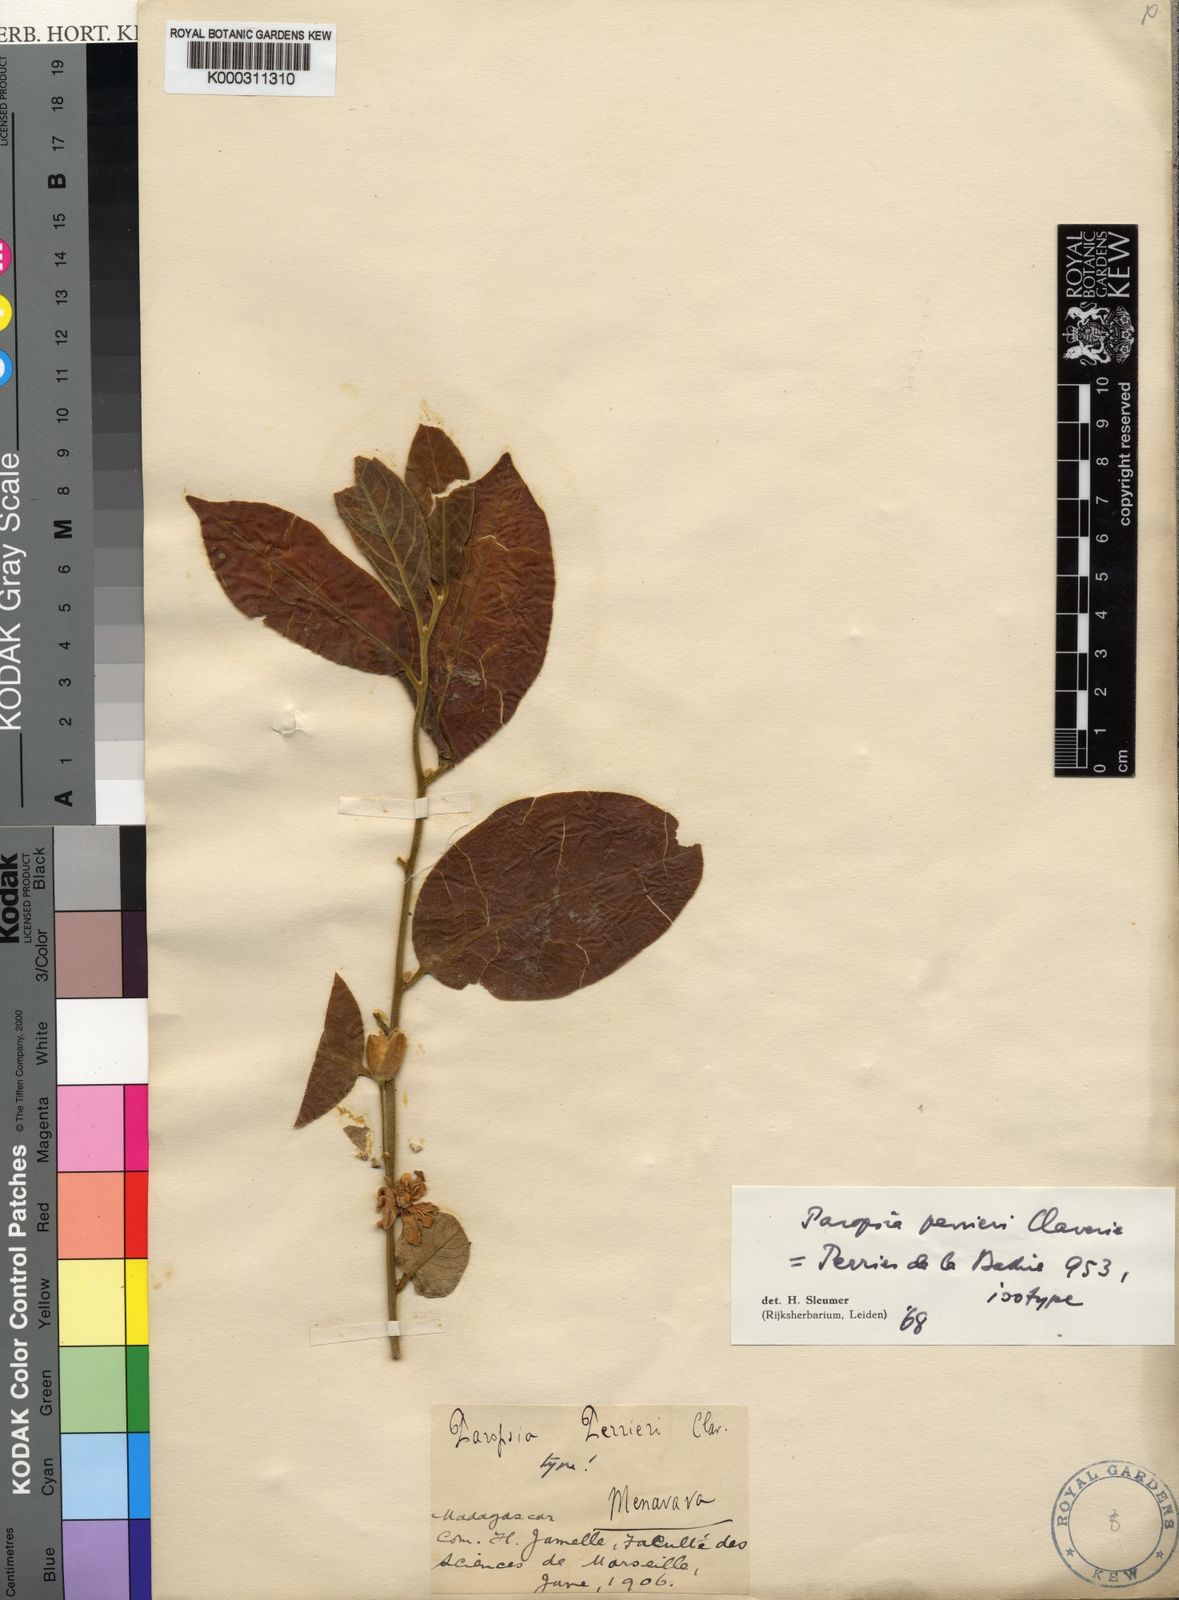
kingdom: Plantae
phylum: Tracheophyta
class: Magnoliopsida
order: Malpighiales
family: Passifloraceae
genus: Paropsia
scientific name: Paropsia perrieri
